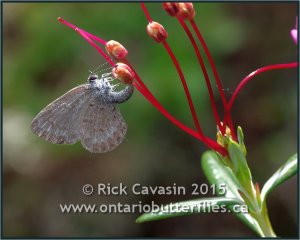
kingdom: Animalia
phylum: Arthropoda
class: Insecta
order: Lepidoptera
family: Lycaenidae
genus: Celastrina
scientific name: Celastrina lucia
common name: Northern Spring Azure
